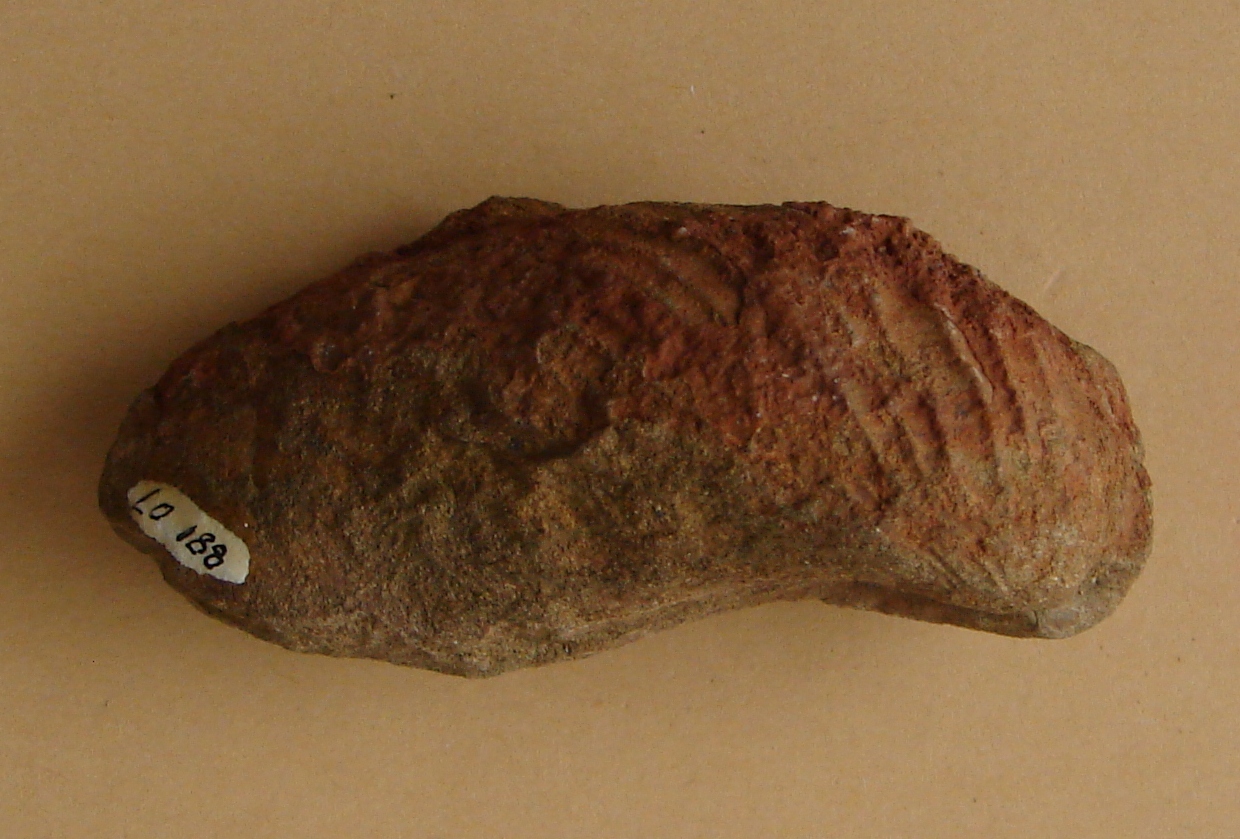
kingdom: Animalia
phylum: Mollusca
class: Bivalvia
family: Pholadomyidae
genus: Pholadomya
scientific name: Pholadomya fidicula
